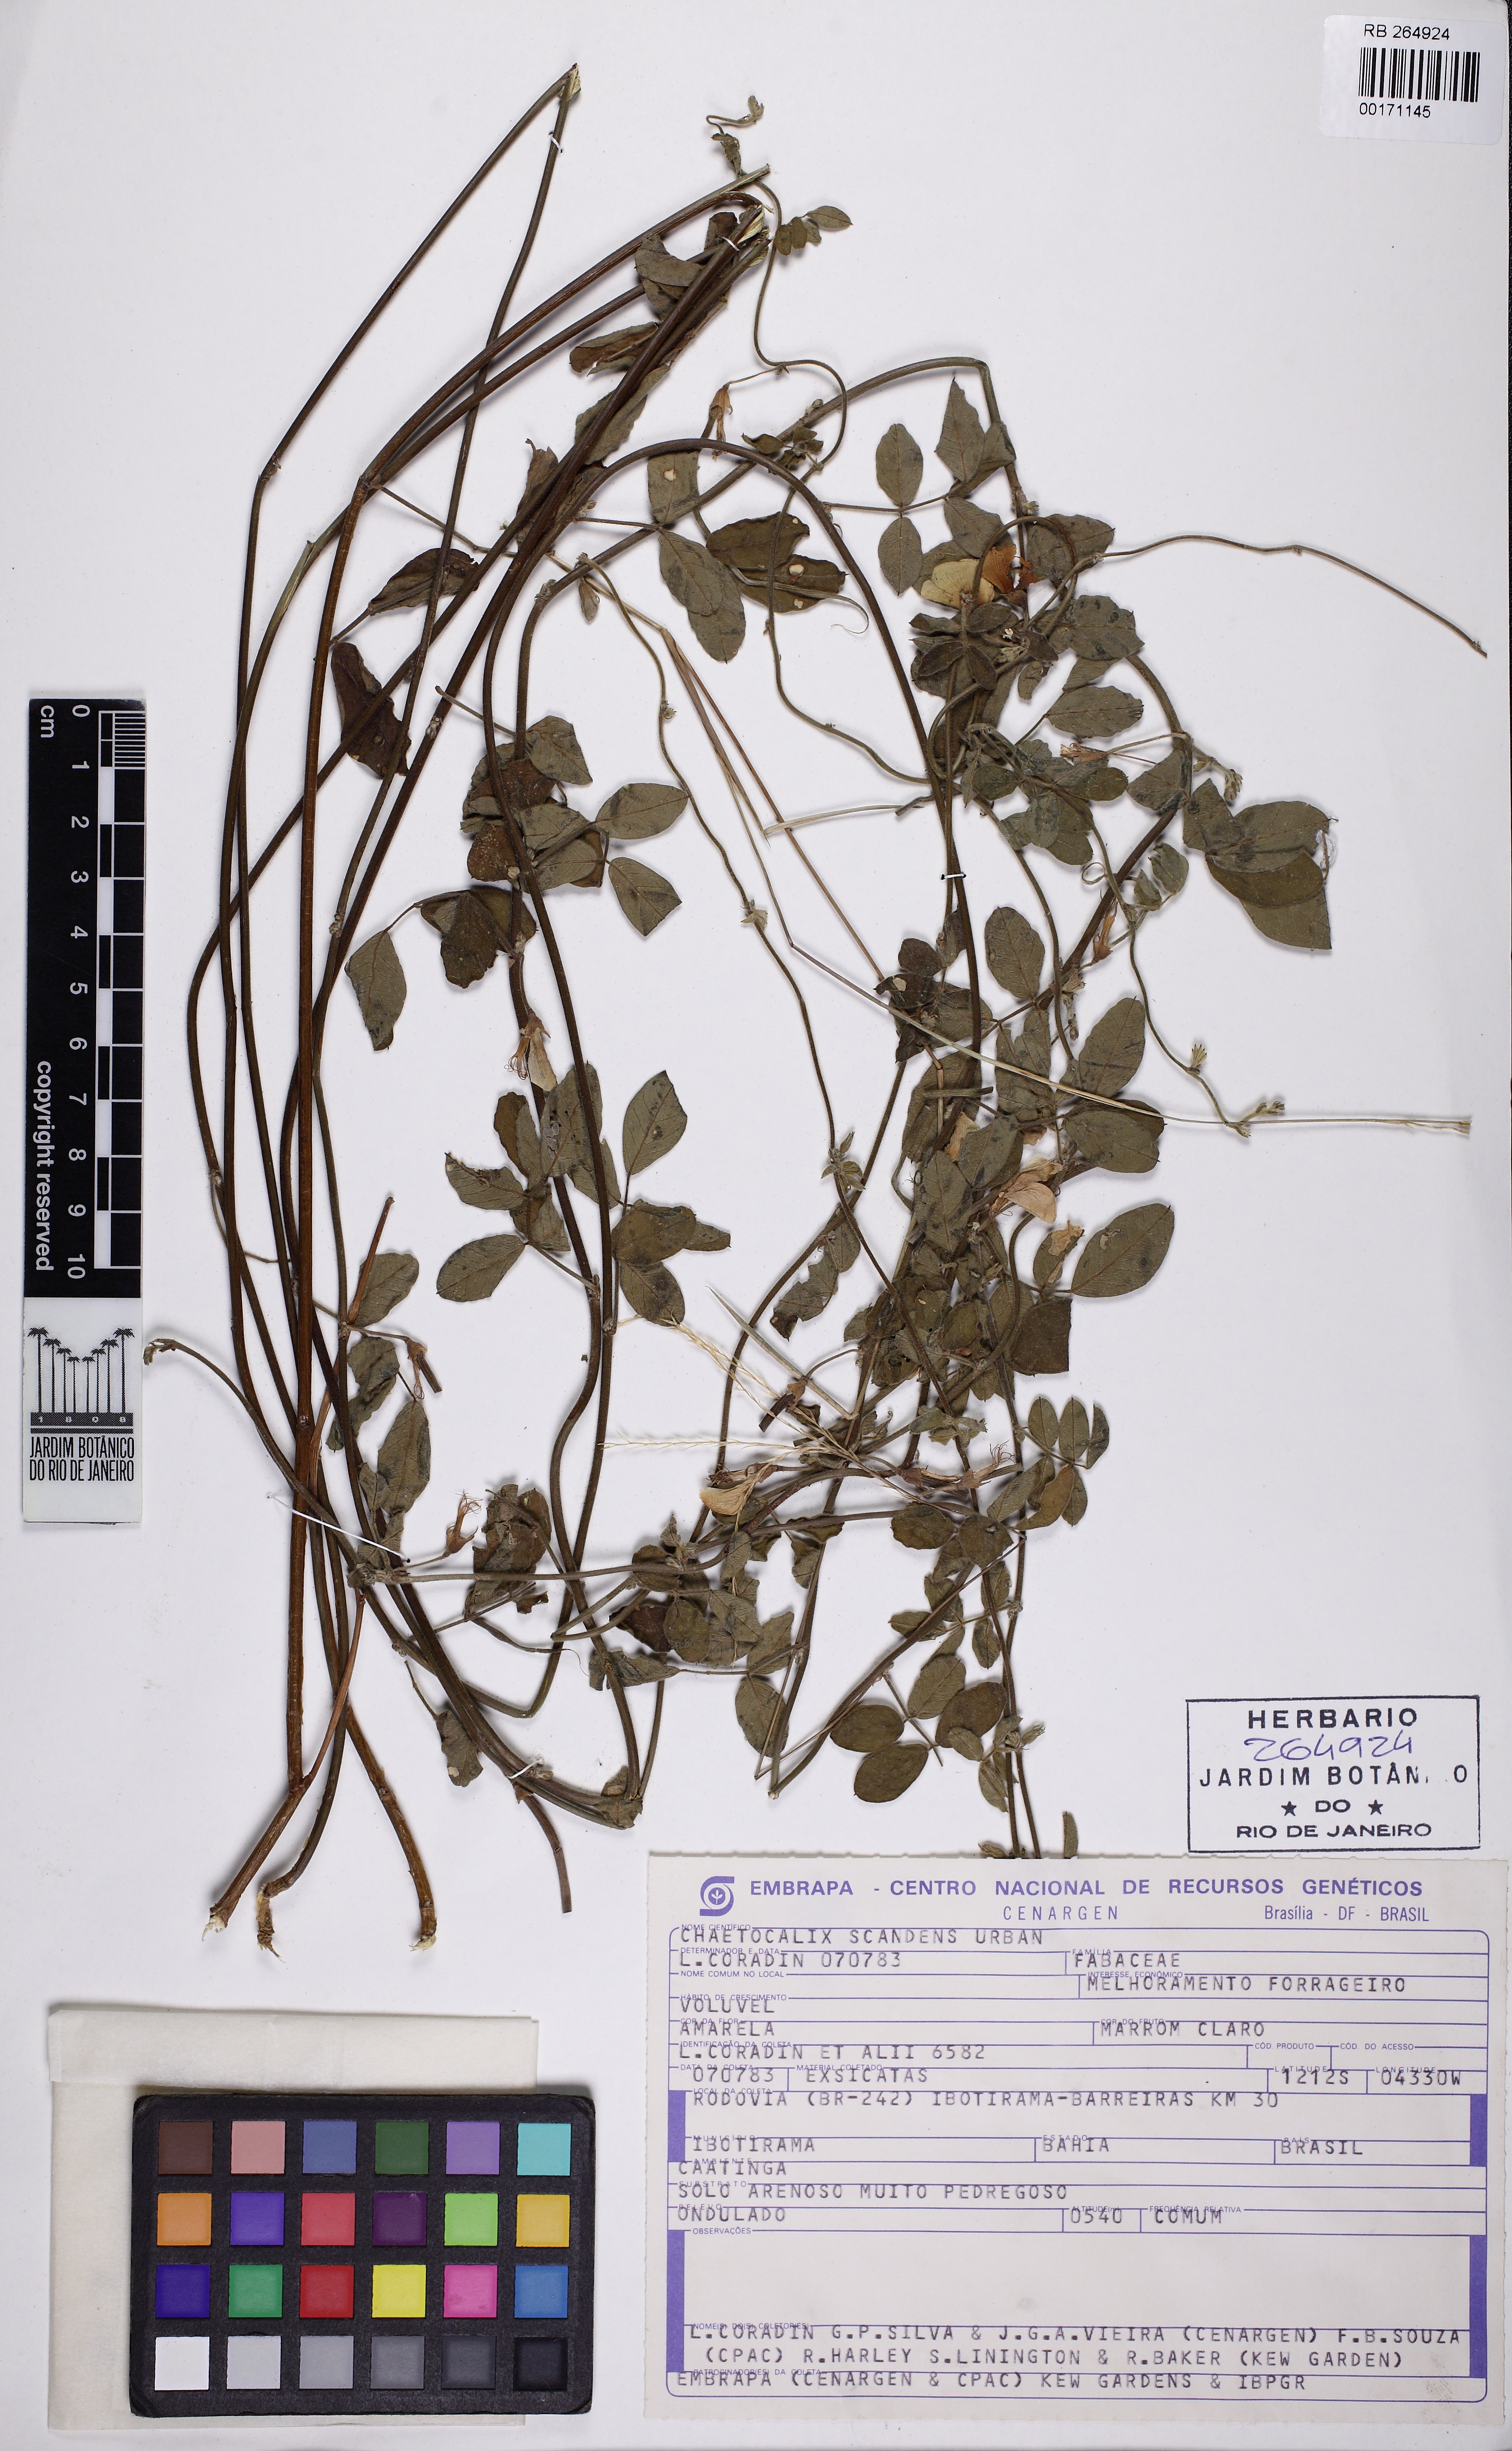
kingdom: Plantae
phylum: Tracheophyta
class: Magnoliopsida
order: Fabales
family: Fabaceae
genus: Nissolia
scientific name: Nissolia vincentina
